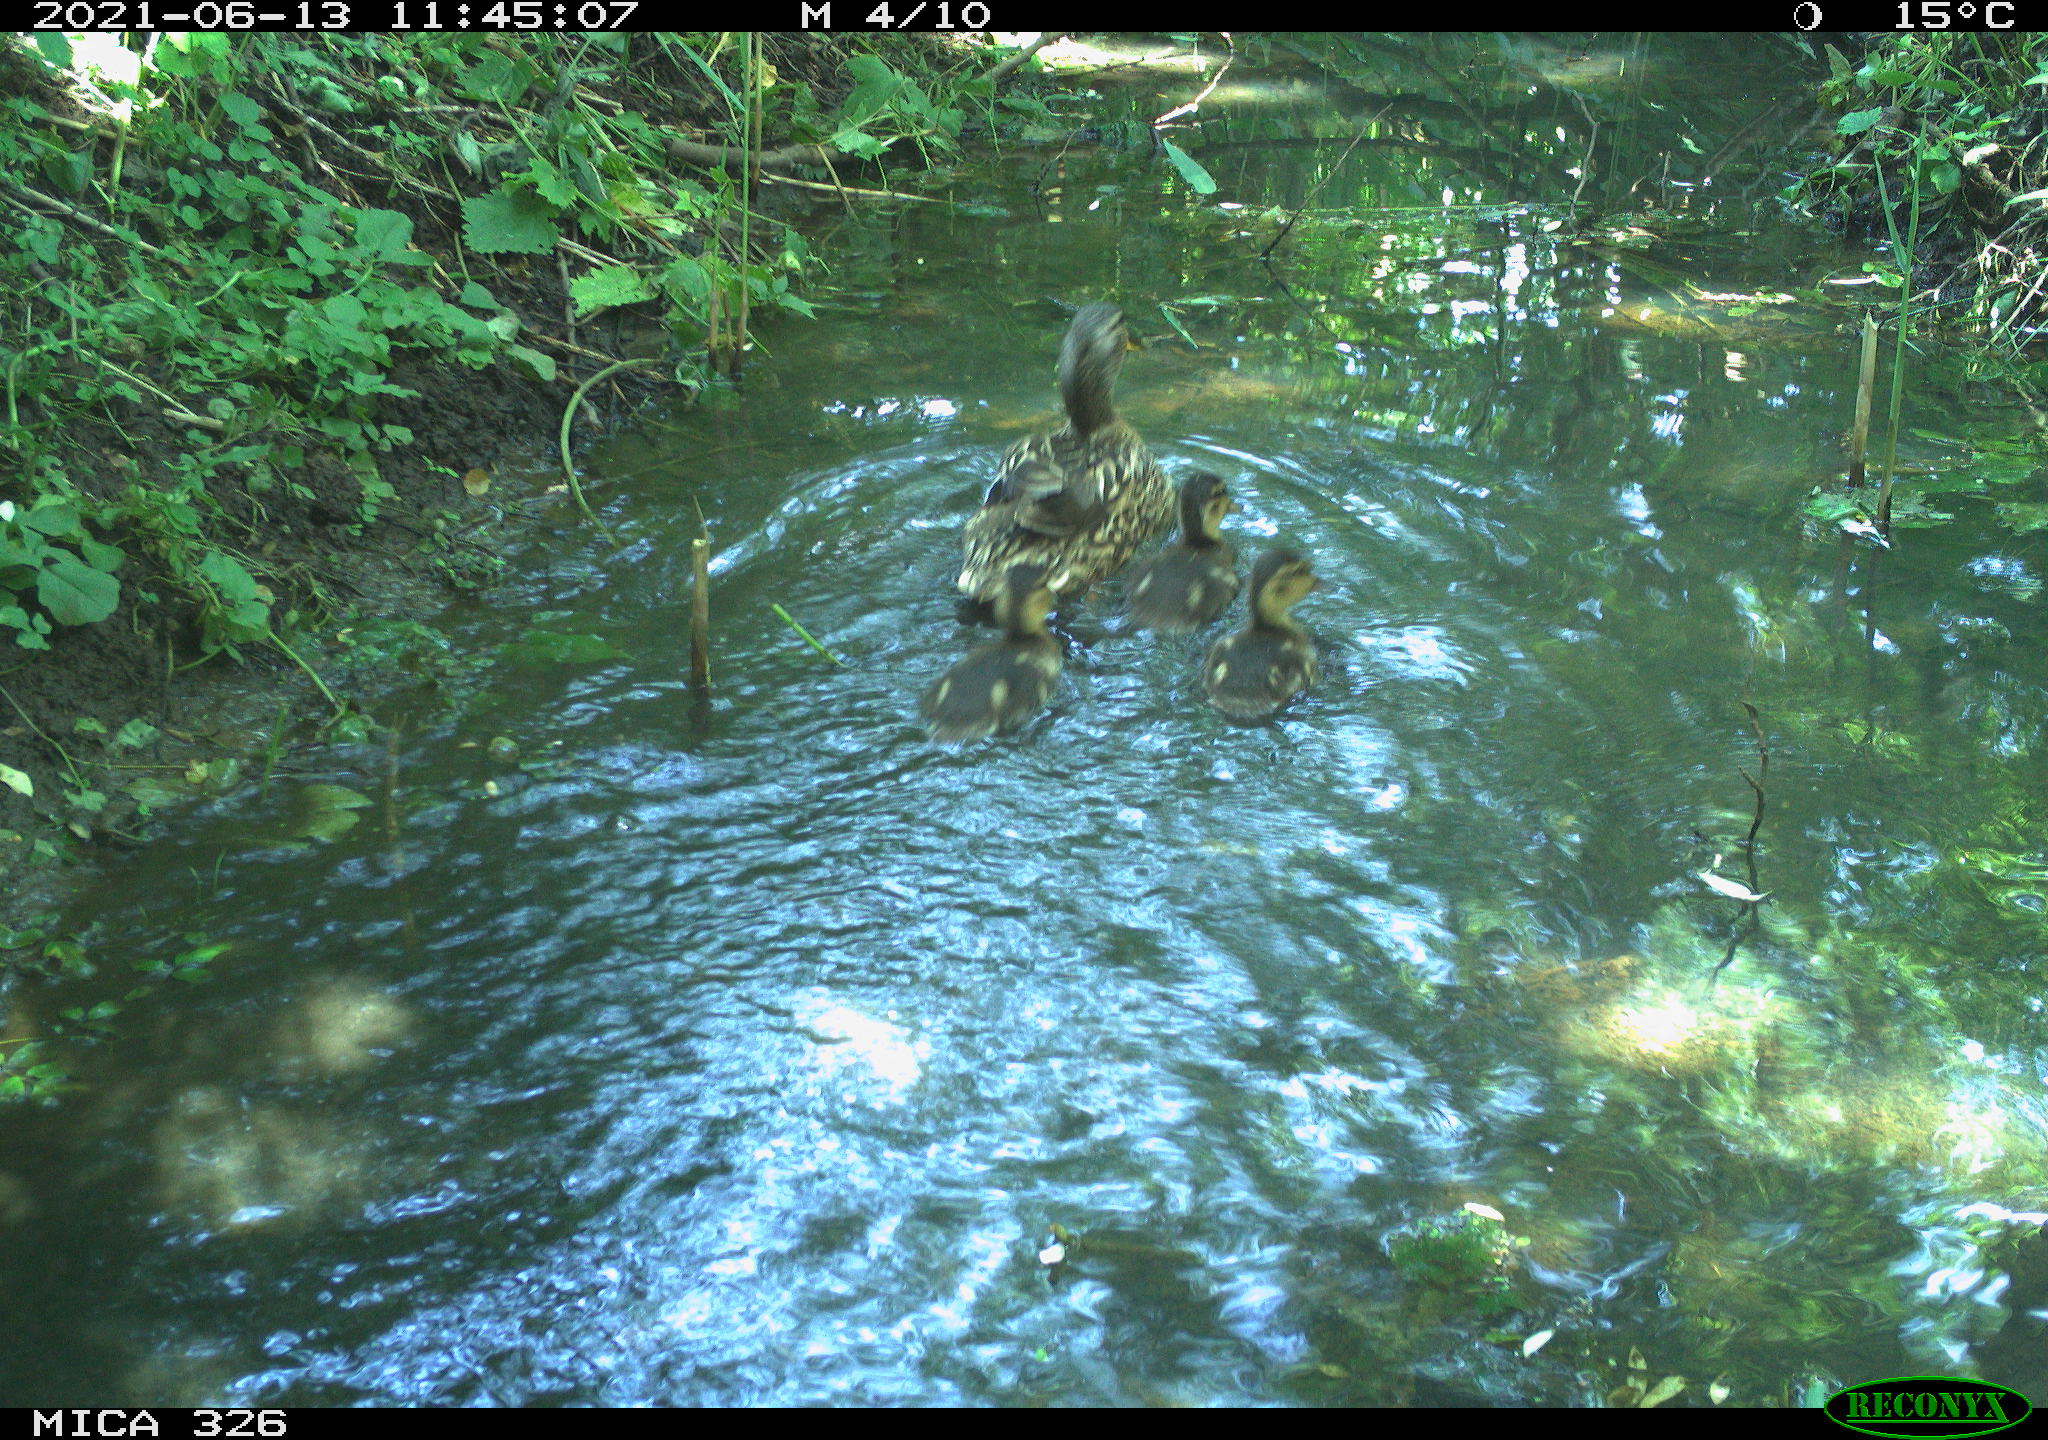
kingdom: Animalia
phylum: Chordata
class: Aves
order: Anseriformes
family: Anatidae
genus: Anas
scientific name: Anas platyrhynchos
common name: Mallard
